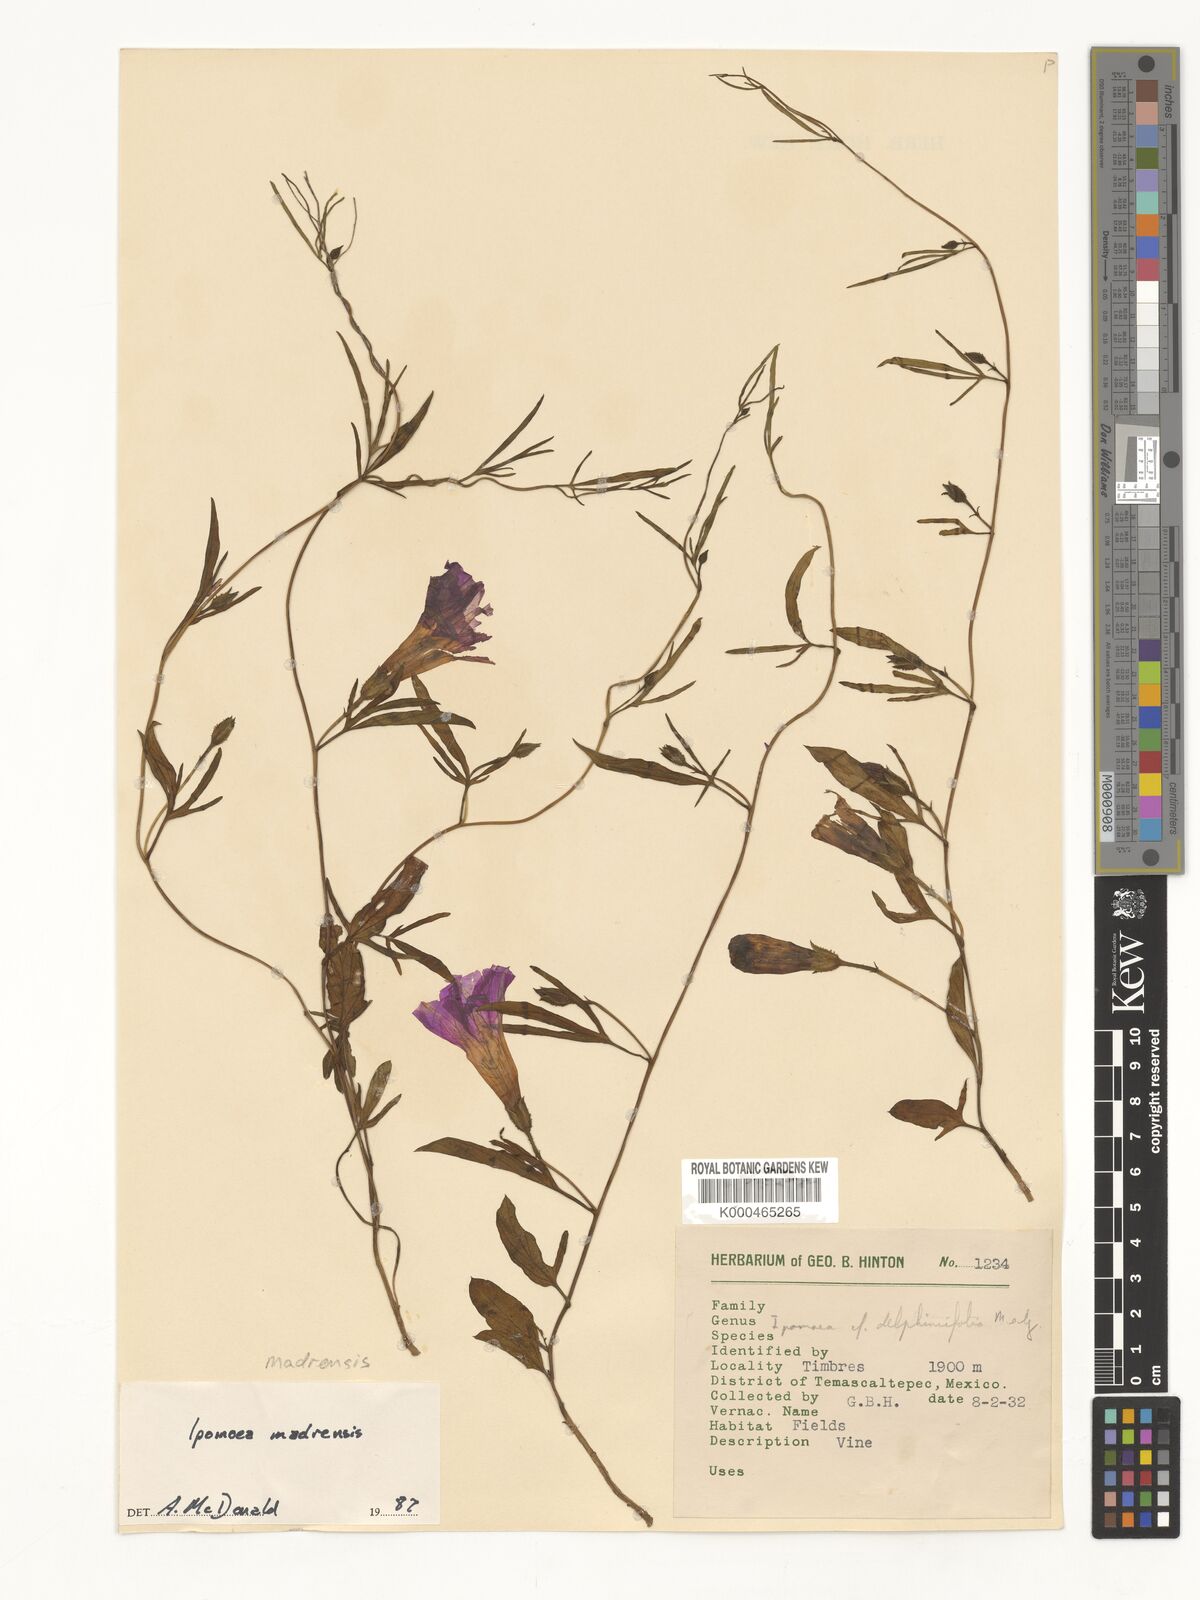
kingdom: Plantae
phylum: Tracheophyta
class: Magnoliopsida
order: Solanales
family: Convolvulaceae
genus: Ipomoea
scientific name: Ipomoea madrensis
